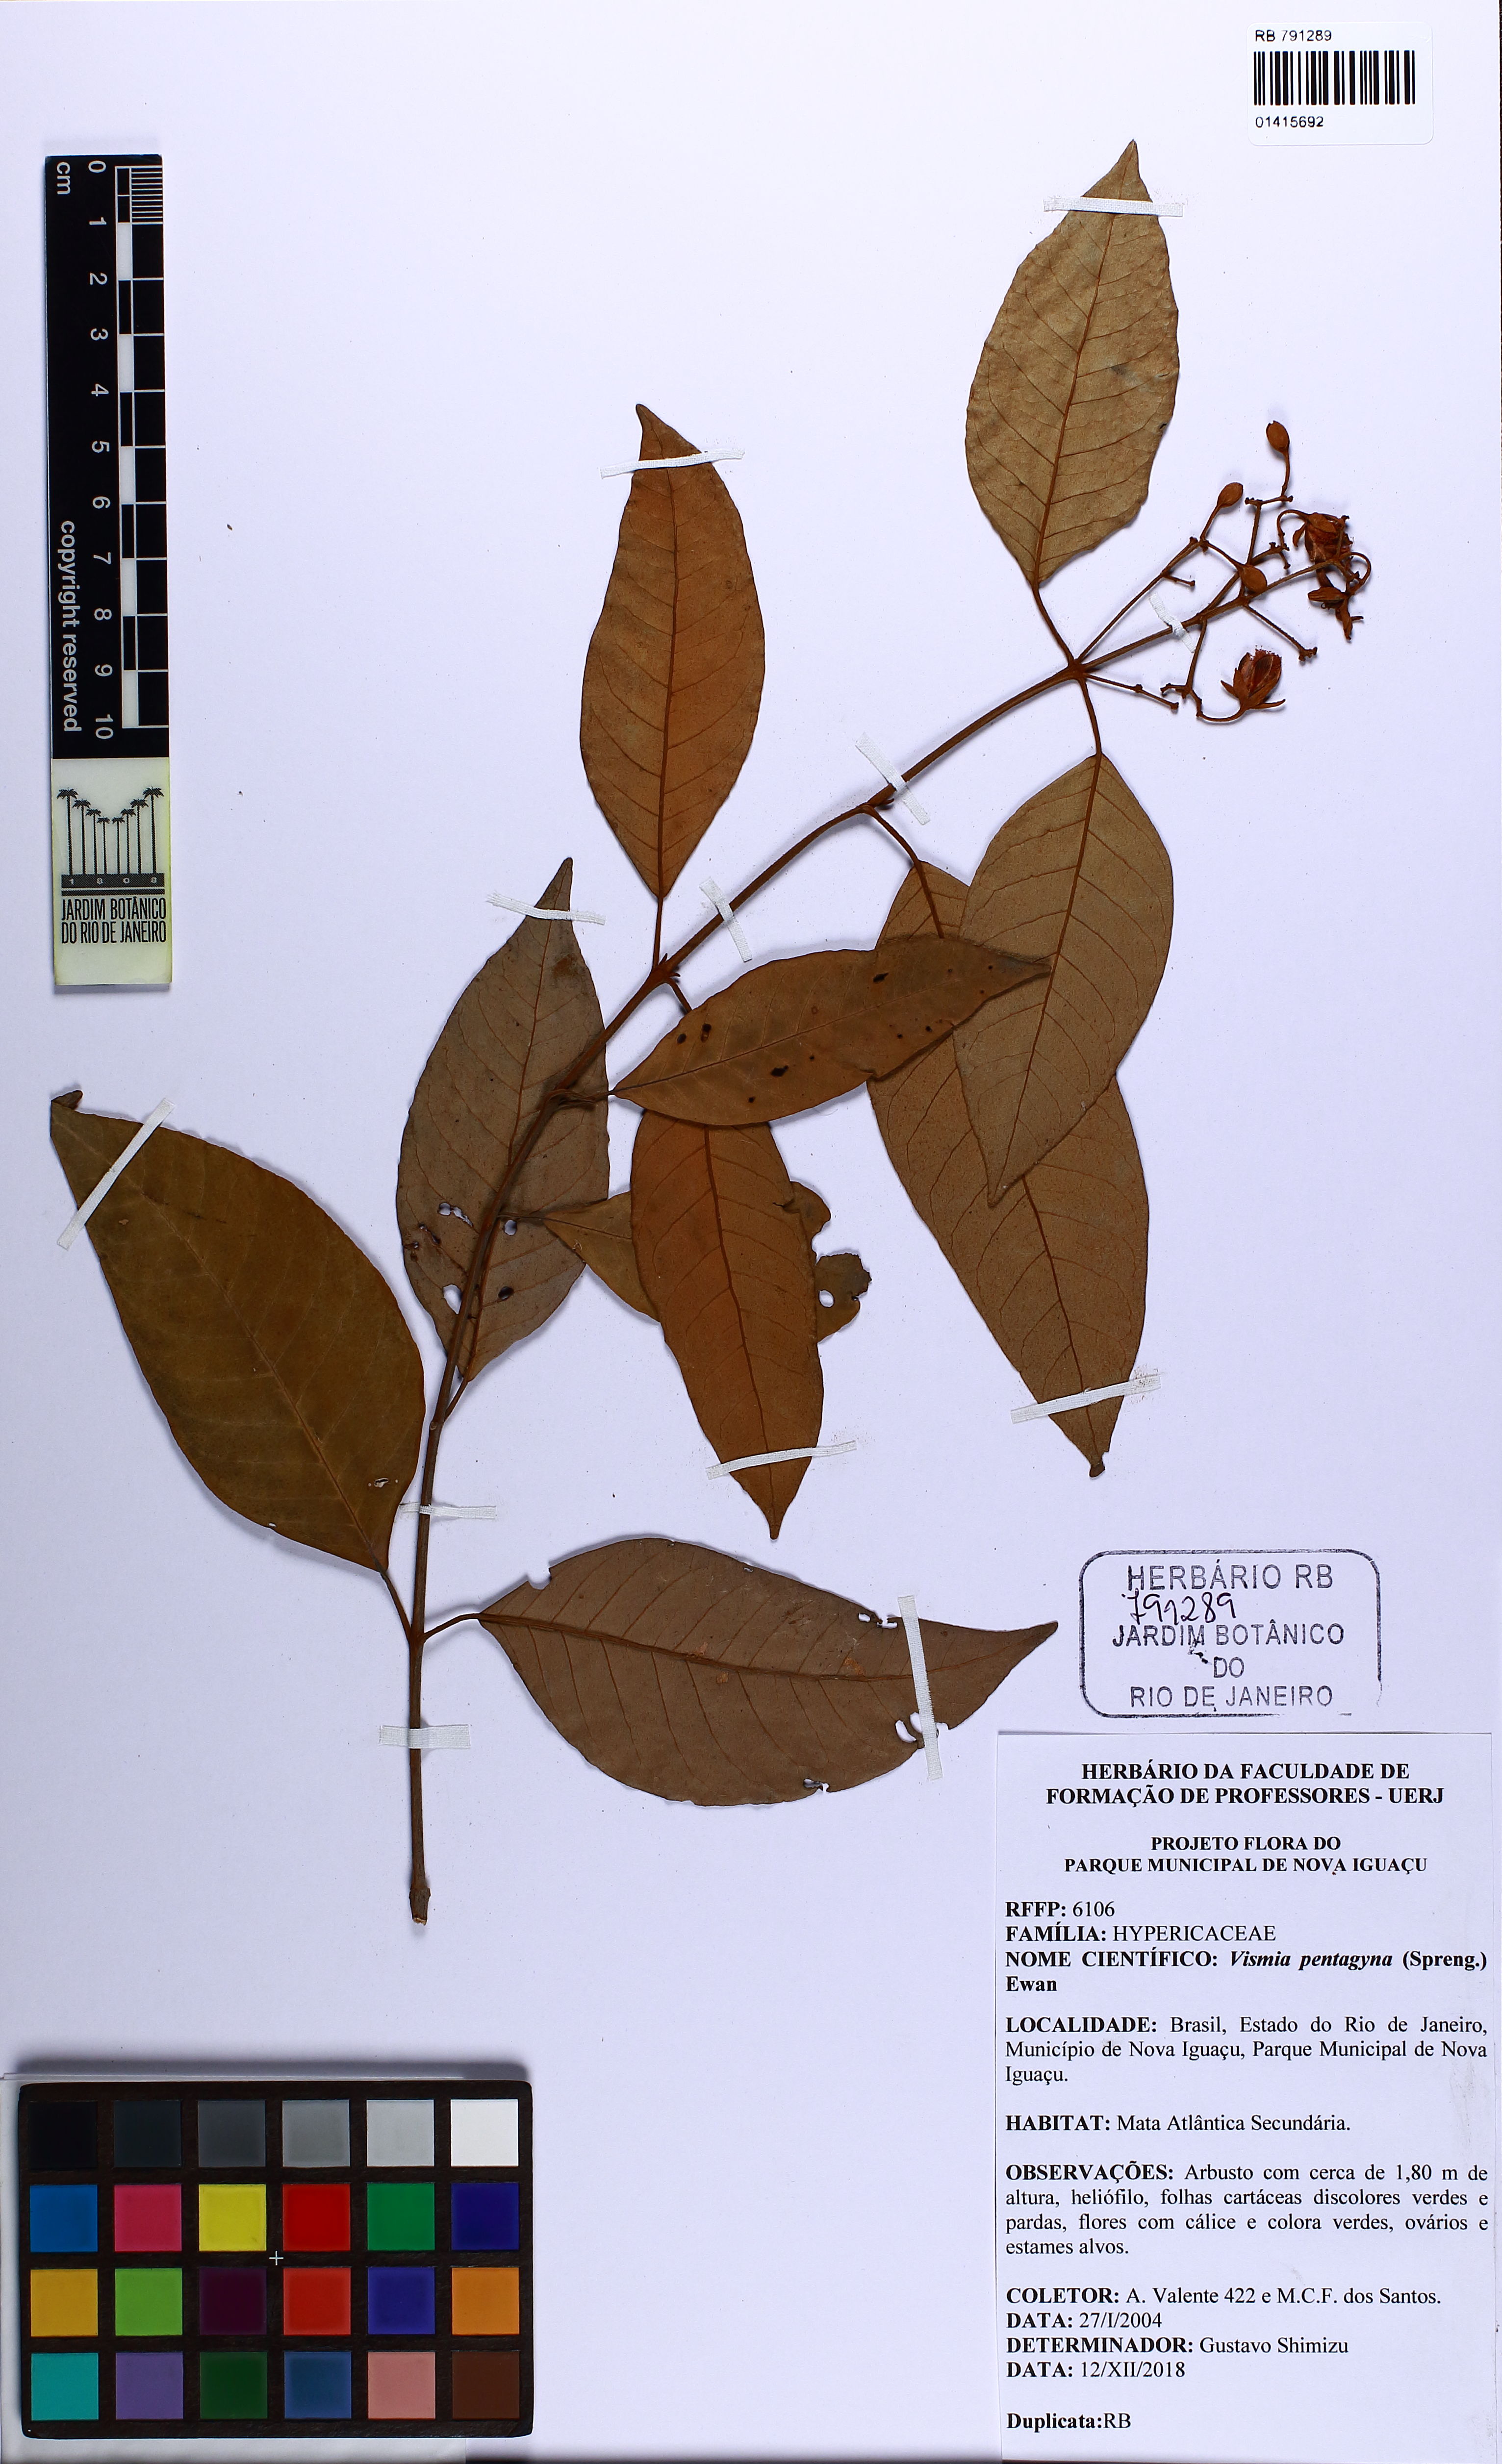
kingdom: Plantae
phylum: Tracheophyta
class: Magnoliopsida
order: Malpighiales
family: Hypericaceae
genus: Vismia
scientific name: Vismia pentagyna
